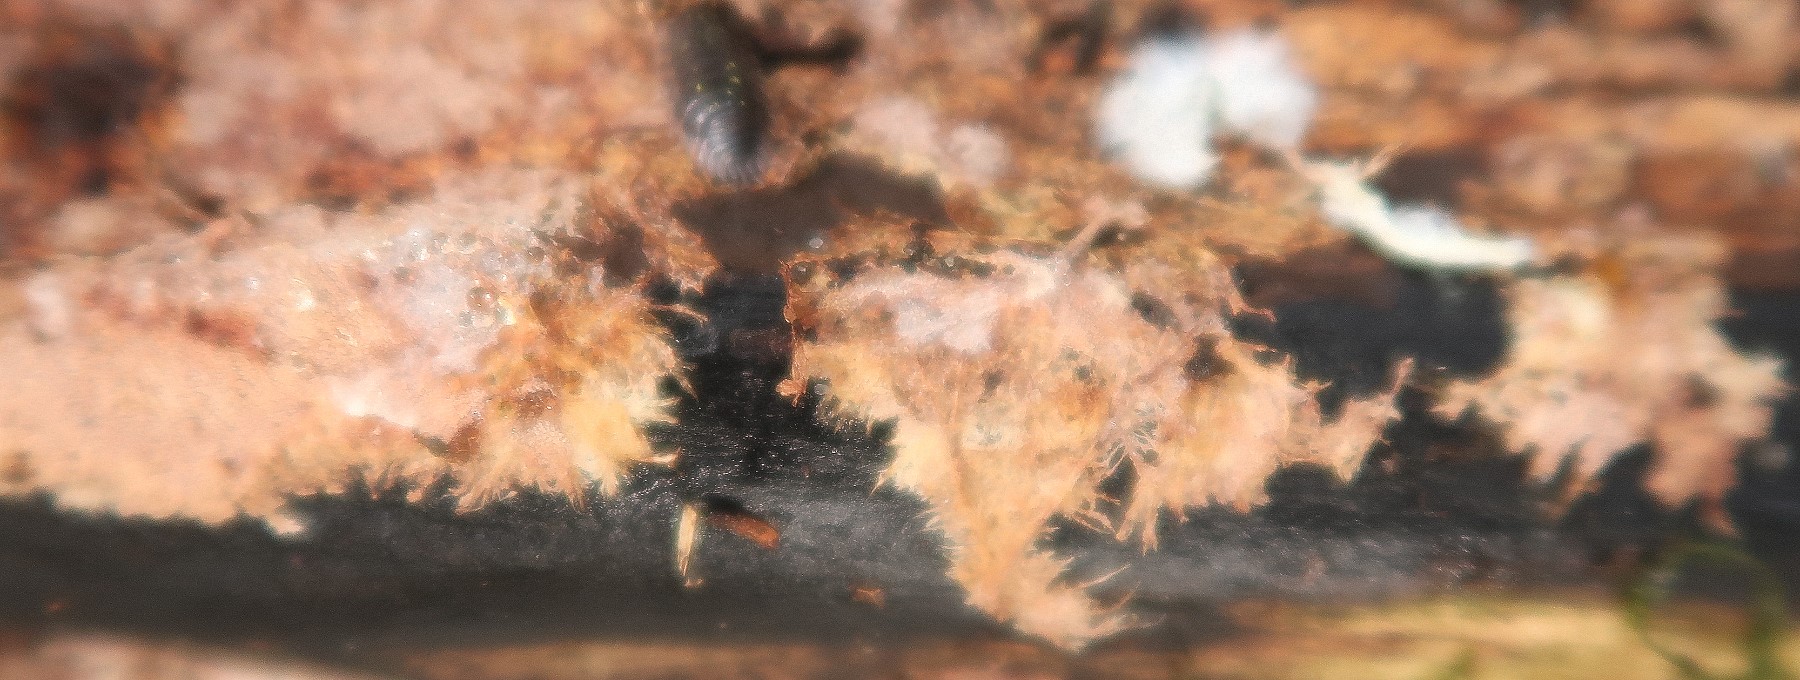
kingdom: Fungi
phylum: Basidiomycota
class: Agaricomycetes
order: Polyporales
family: Steccherinaceae
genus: Steccherinum
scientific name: Steccherinum fimbriatum
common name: trådet skønpig
